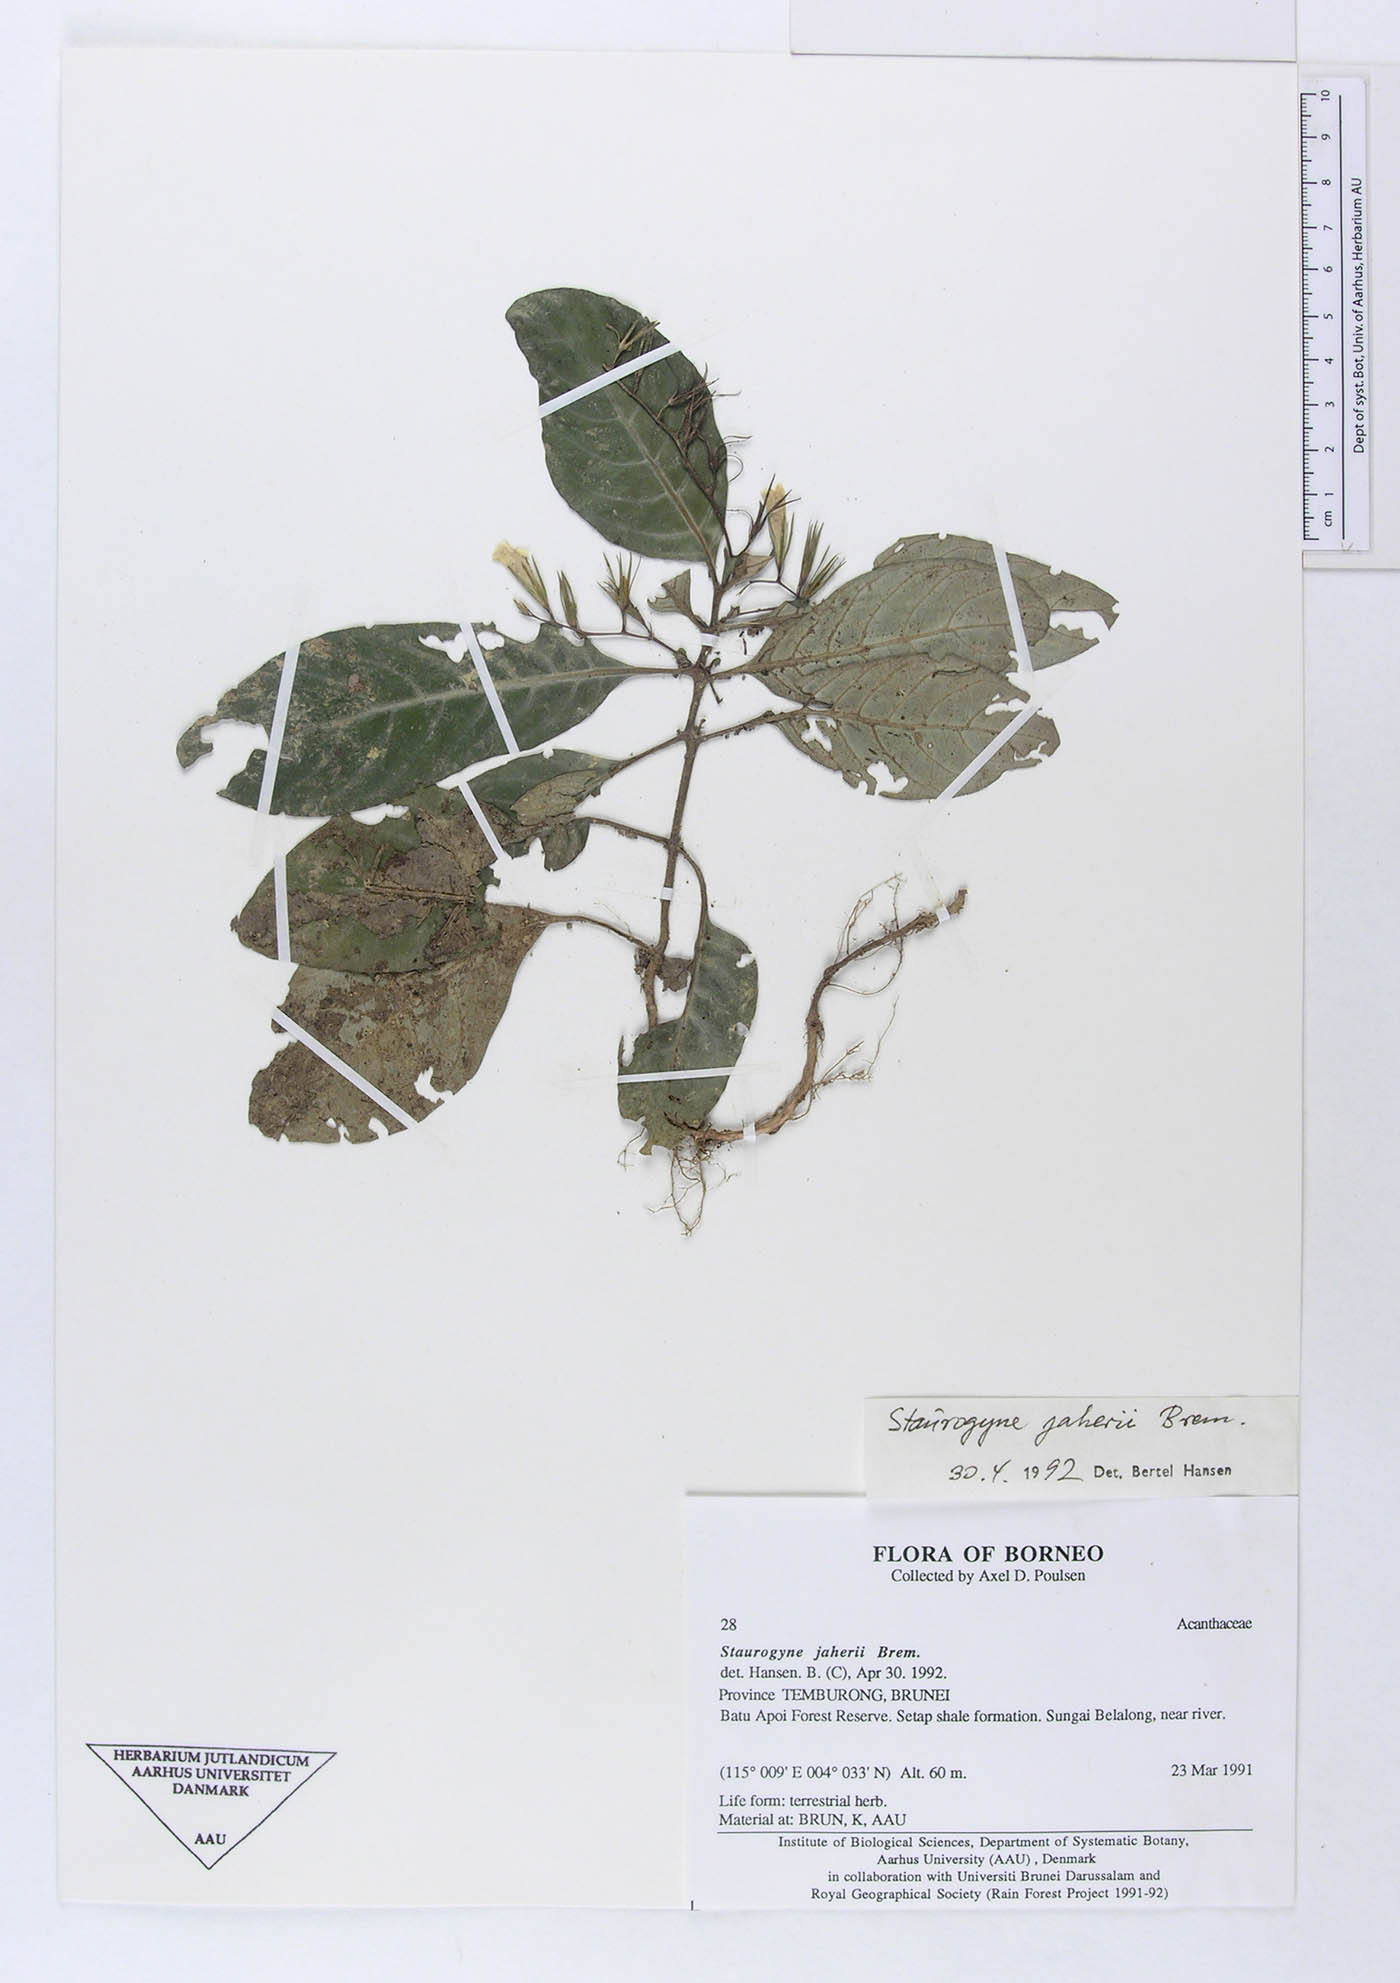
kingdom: Plantae
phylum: Tracheophyta
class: Magnoliopsida
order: Lamiales
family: Acanthaceae
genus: Staurogyne
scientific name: Staurogyne jaherii
